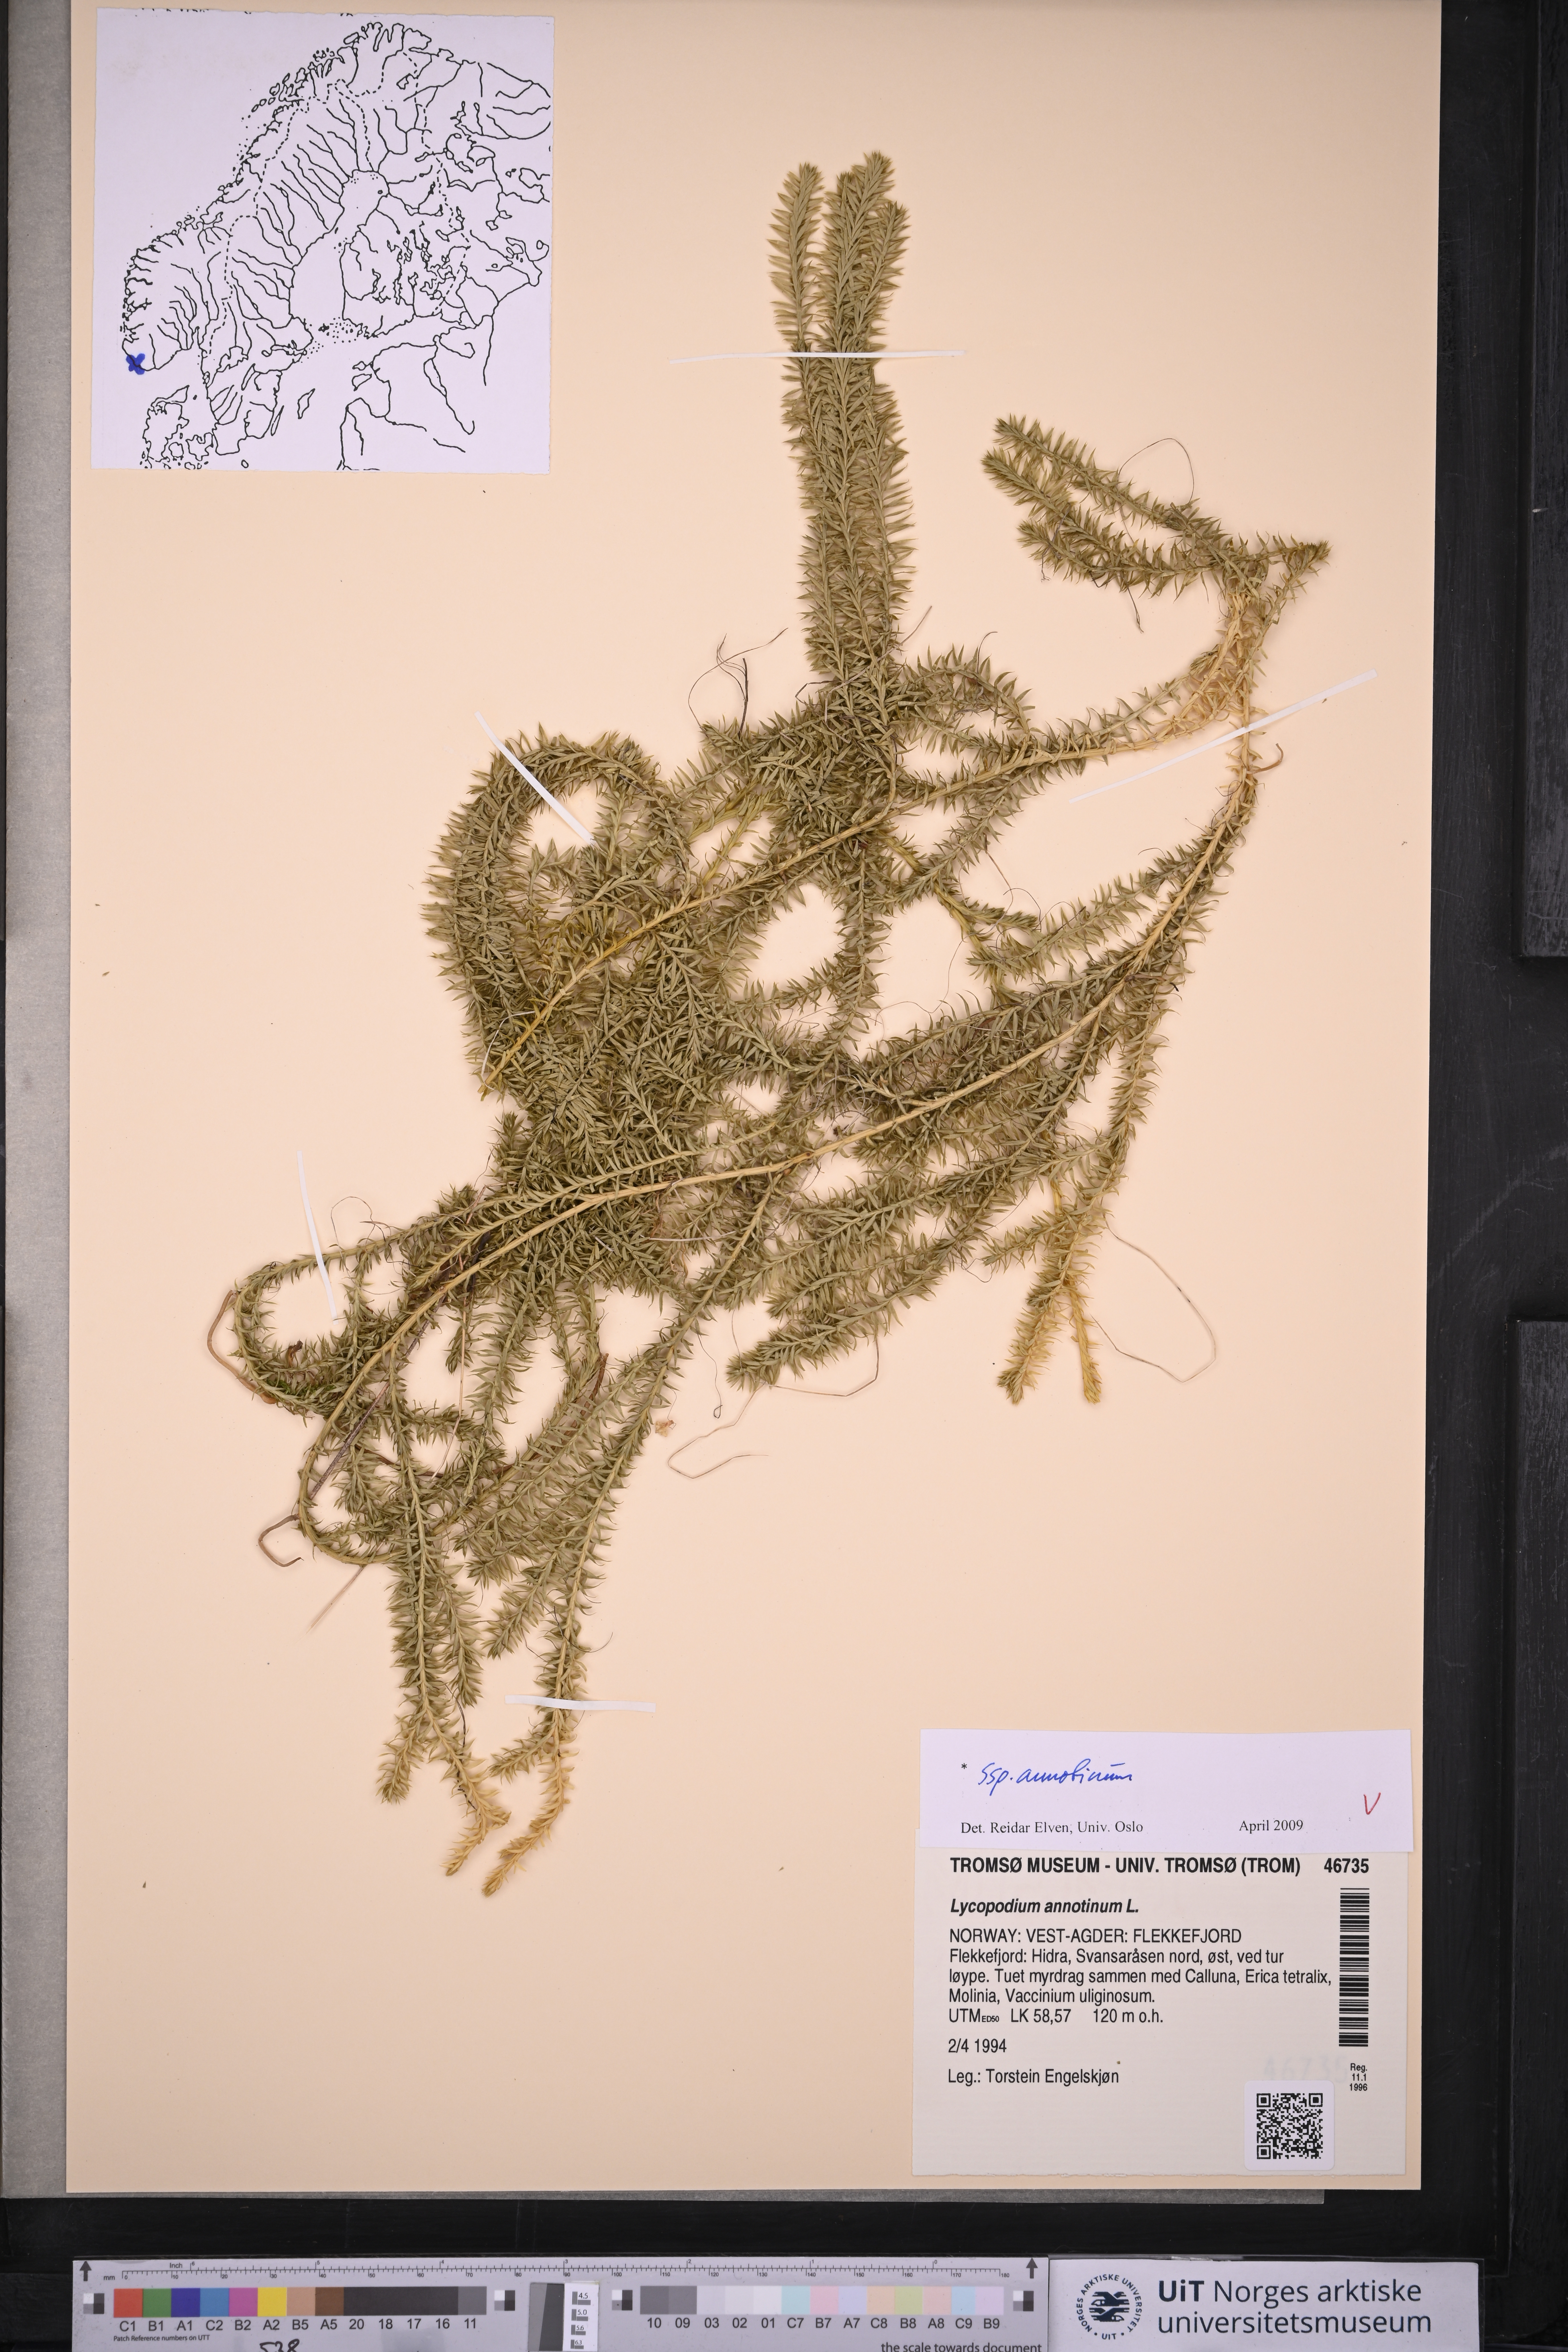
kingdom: Plantae
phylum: Tracheophyta
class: Lycopodiopsida
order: Lycopodiales
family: Lycopodiaceae
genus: Spinulum
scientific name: Spinulum annotinum
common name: Interrupted club-moss
